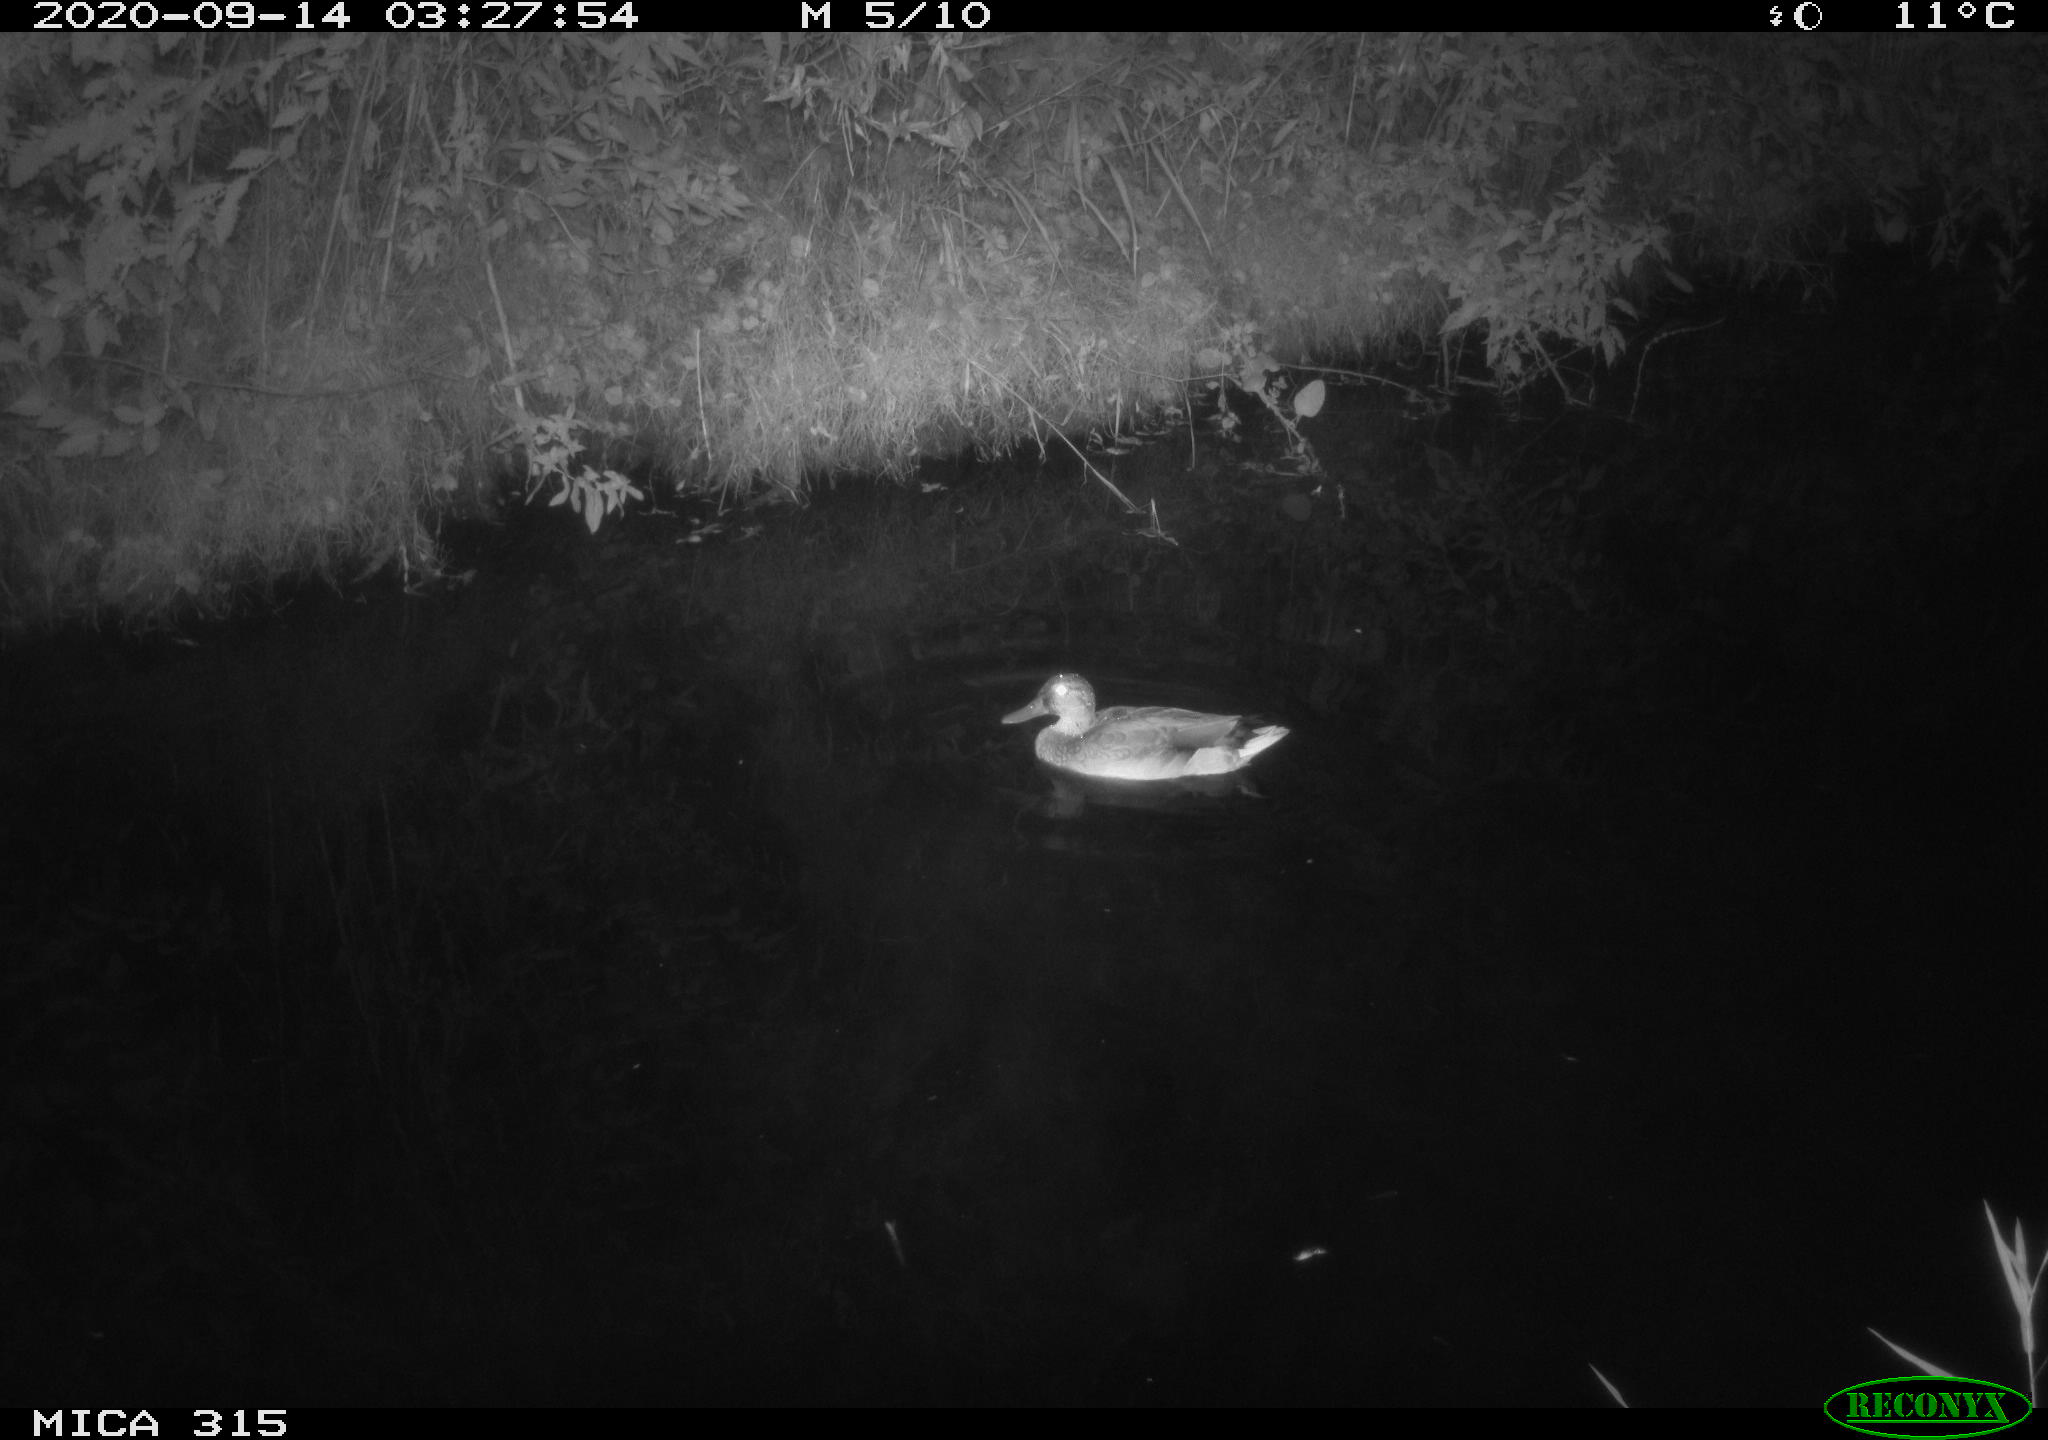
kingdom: Animalia
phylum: Chordata
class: Aves
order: Anseriformes
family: Anatidae
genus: Anas
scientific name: Anas platyrhynchos
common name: Mallard
